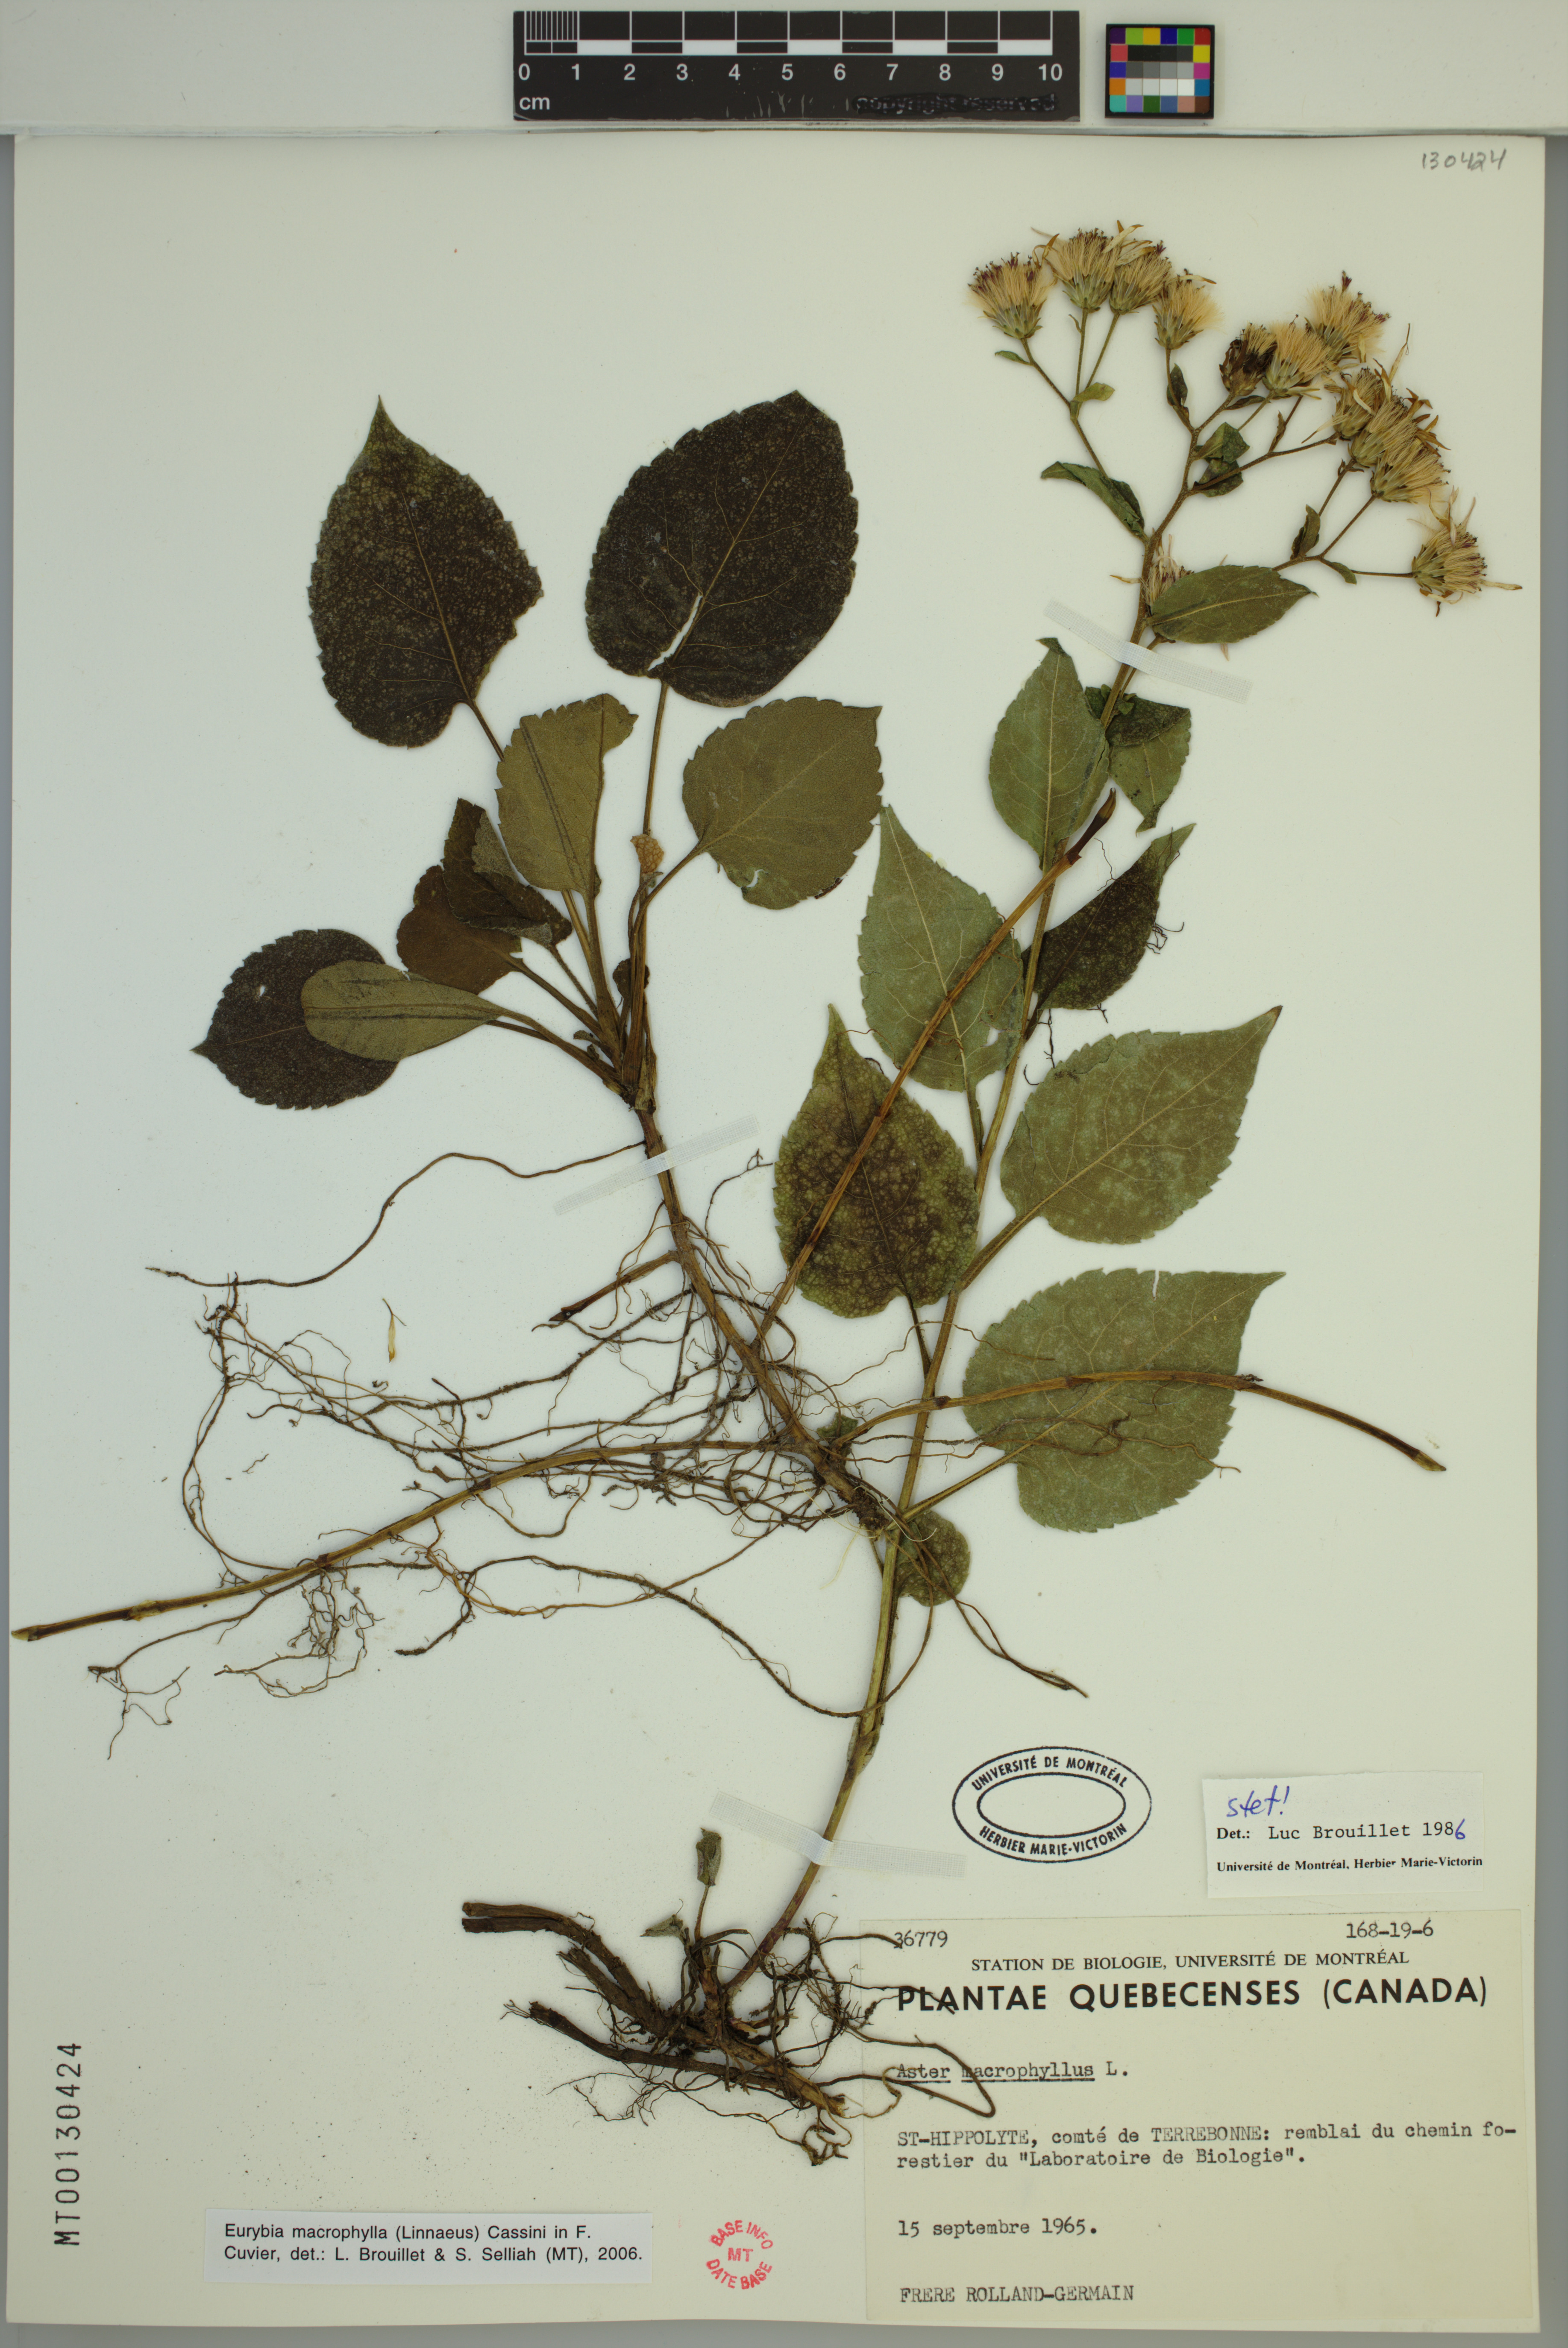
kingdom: Plantae
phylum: Tracheophyta
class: Magnoliopsida
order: Asterales
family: Asteraceae
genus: Eurybia
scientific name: Eurybia macrophylla
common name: Big-leaved aster
